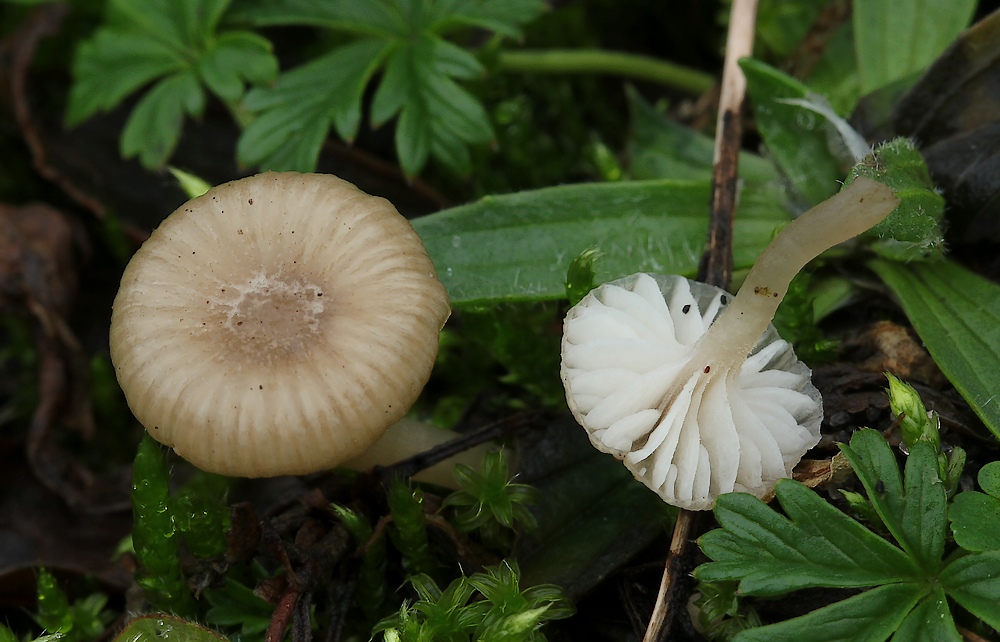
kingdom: Fungi
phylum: Basidiomycota
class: Agaricomycetes
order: Agaricales
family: Tricholomataceae
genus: Gamundia
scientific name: Gamundia
